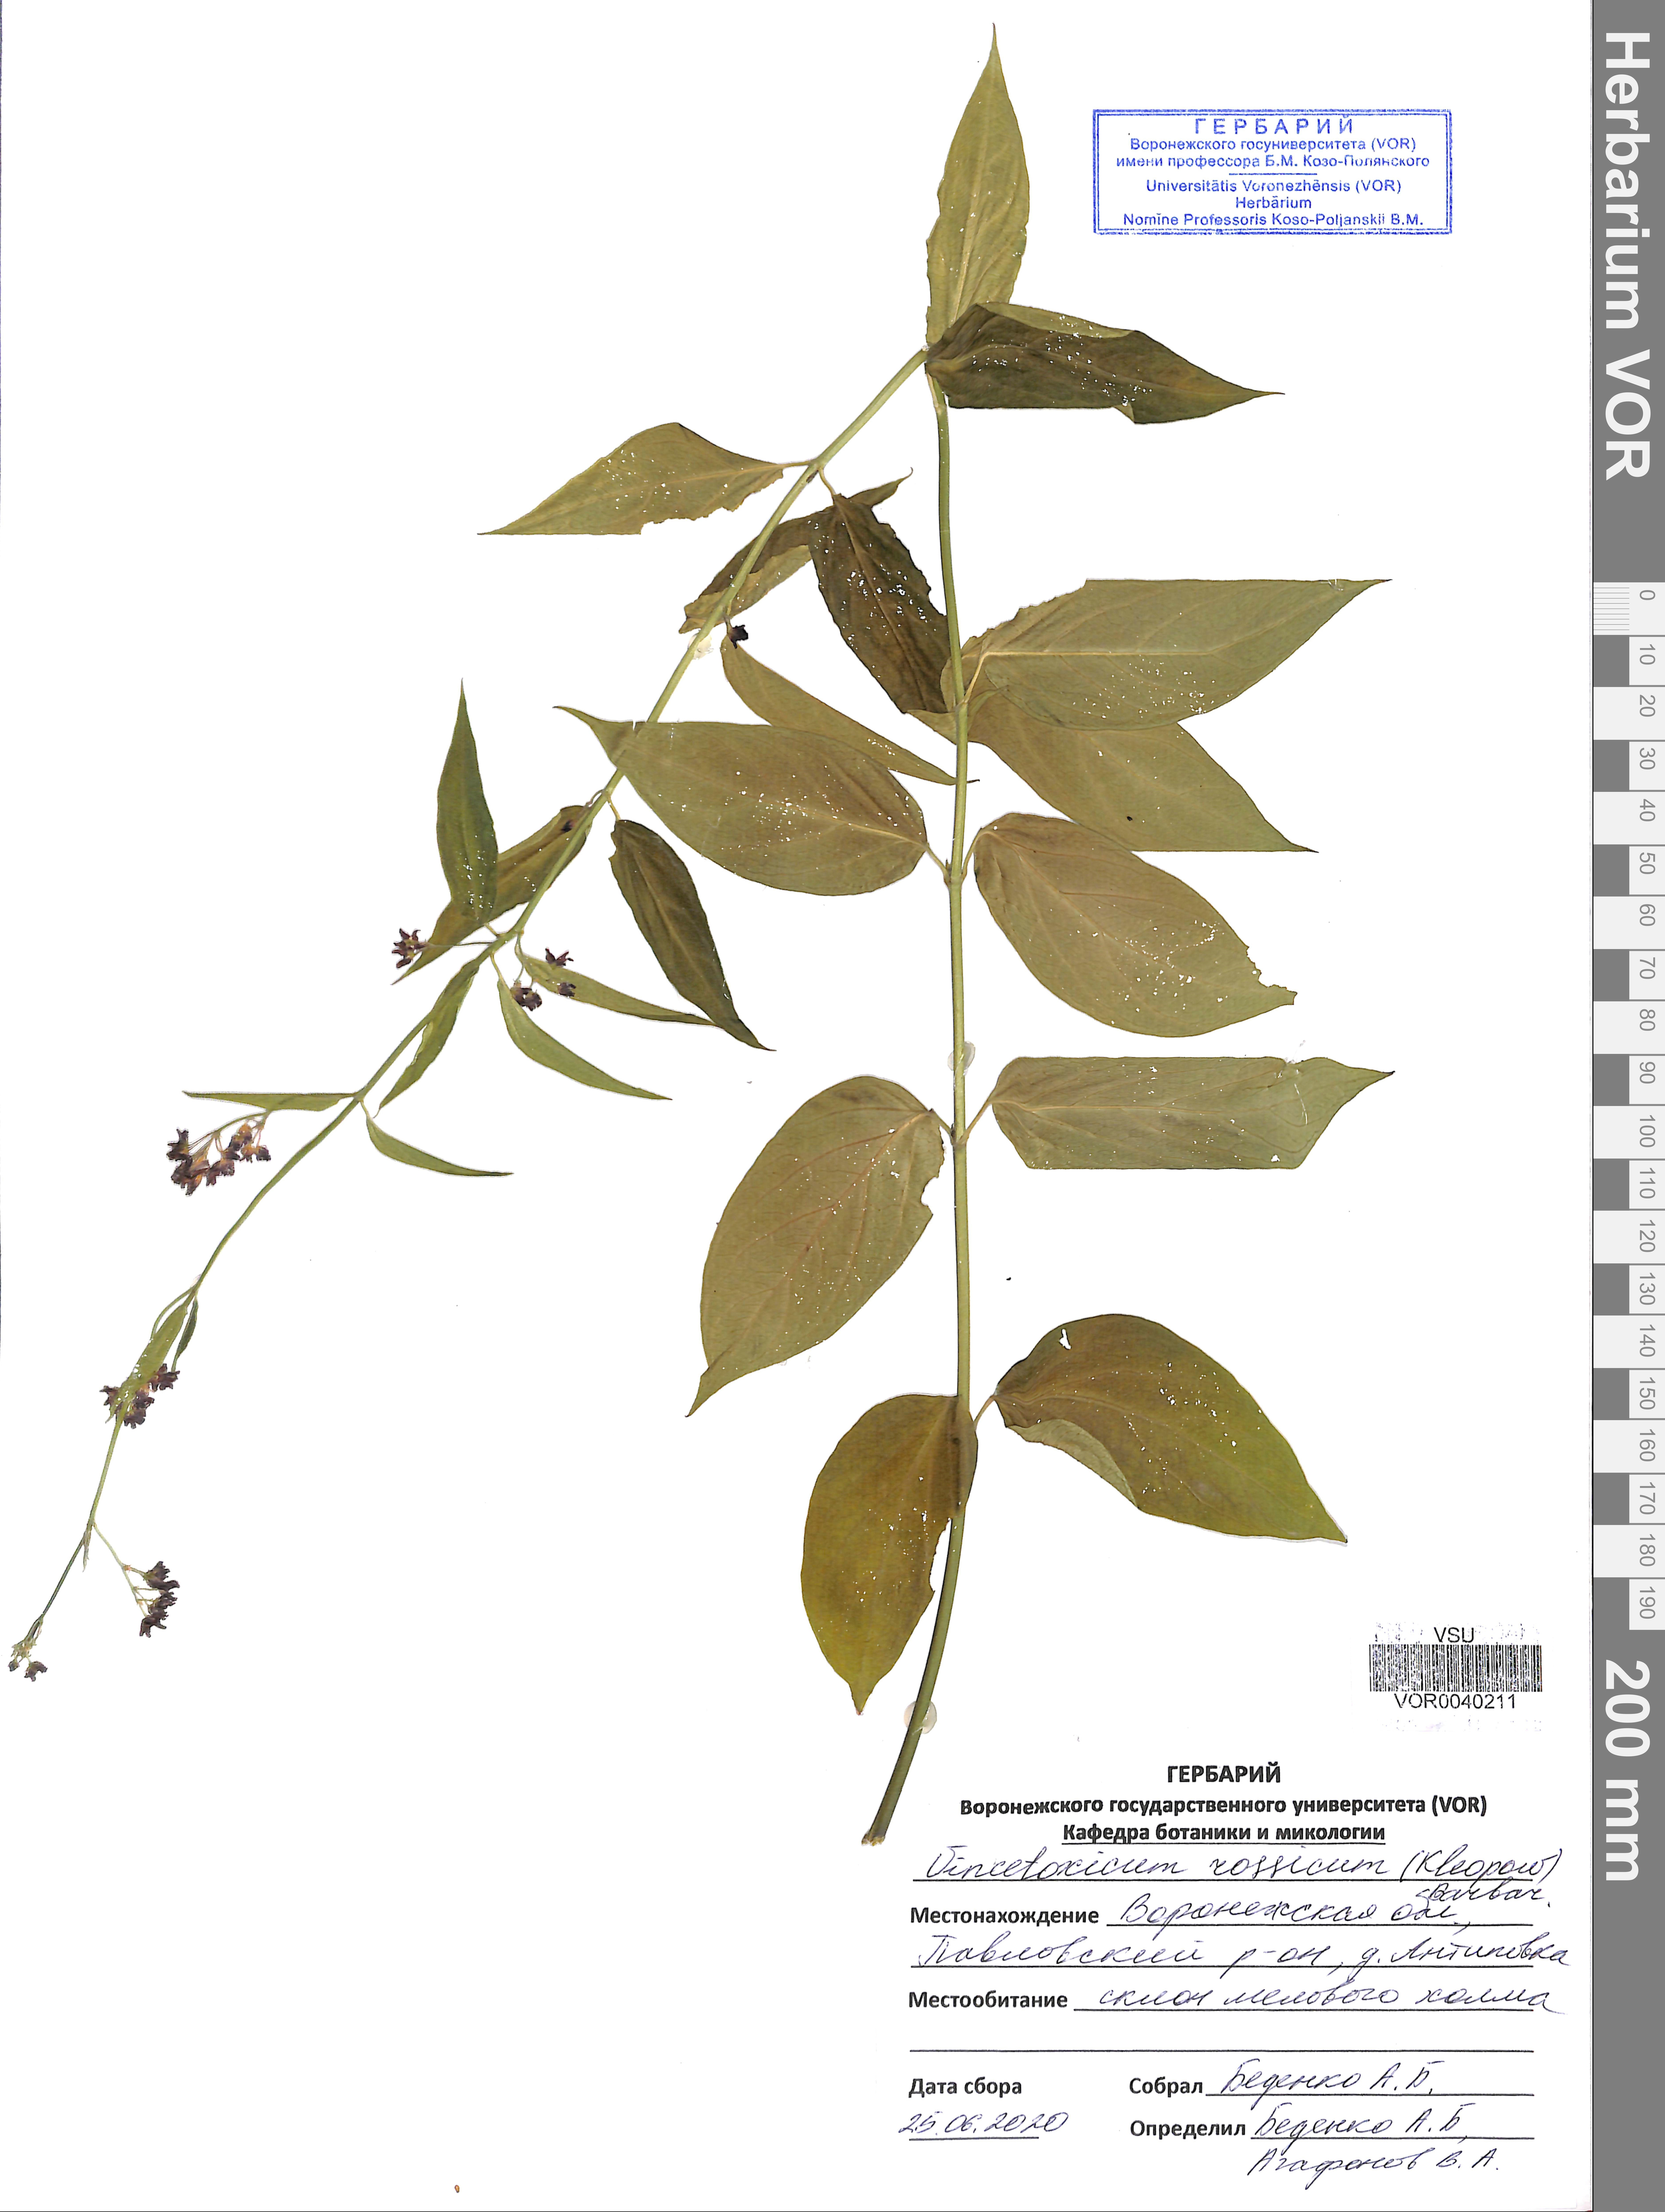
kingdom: Plantae
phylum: Tracheophyta
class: Magnoliopsida
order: Gentianales
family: Apocynaceae
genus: Vincetoxicum
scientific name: Vincetoxicum rossicum
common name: Dog-strangling vine
